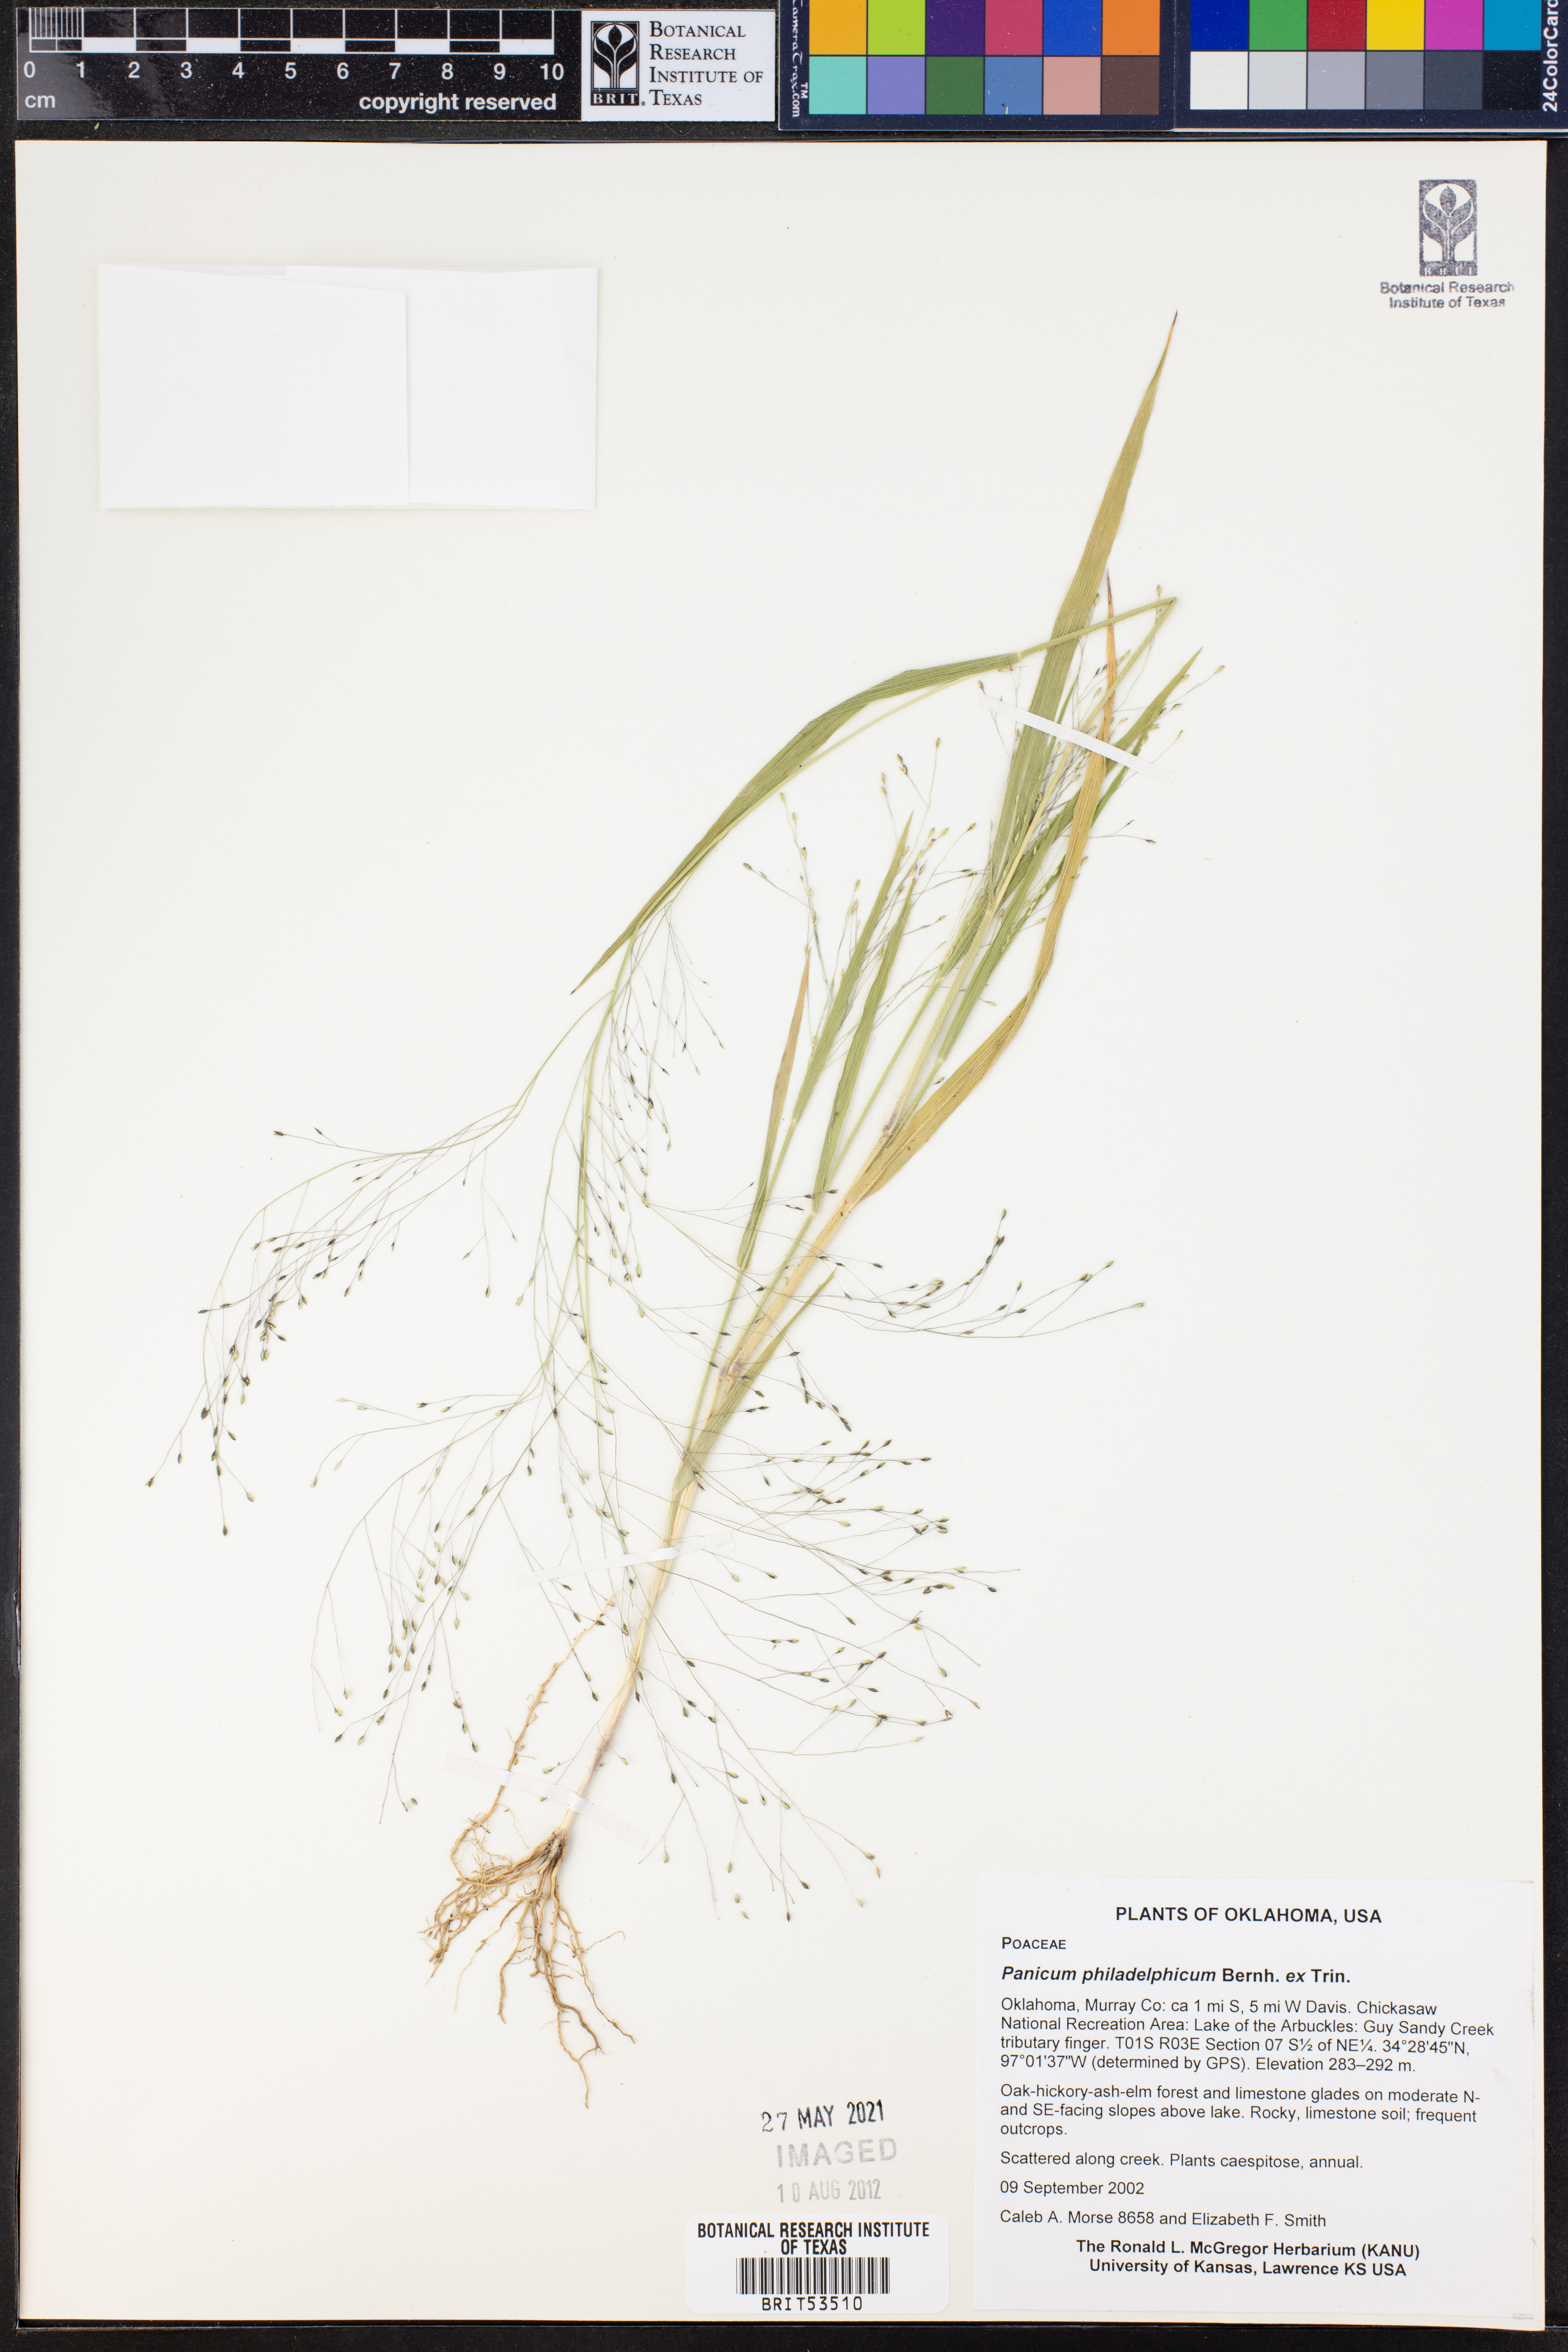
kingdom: Plantae
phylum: Tracheophyta
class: Liliopsida
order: Poales
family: Poaceae
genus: Panicum
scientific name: Panicum philadelphicum
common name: Philadelphia witchgrass
